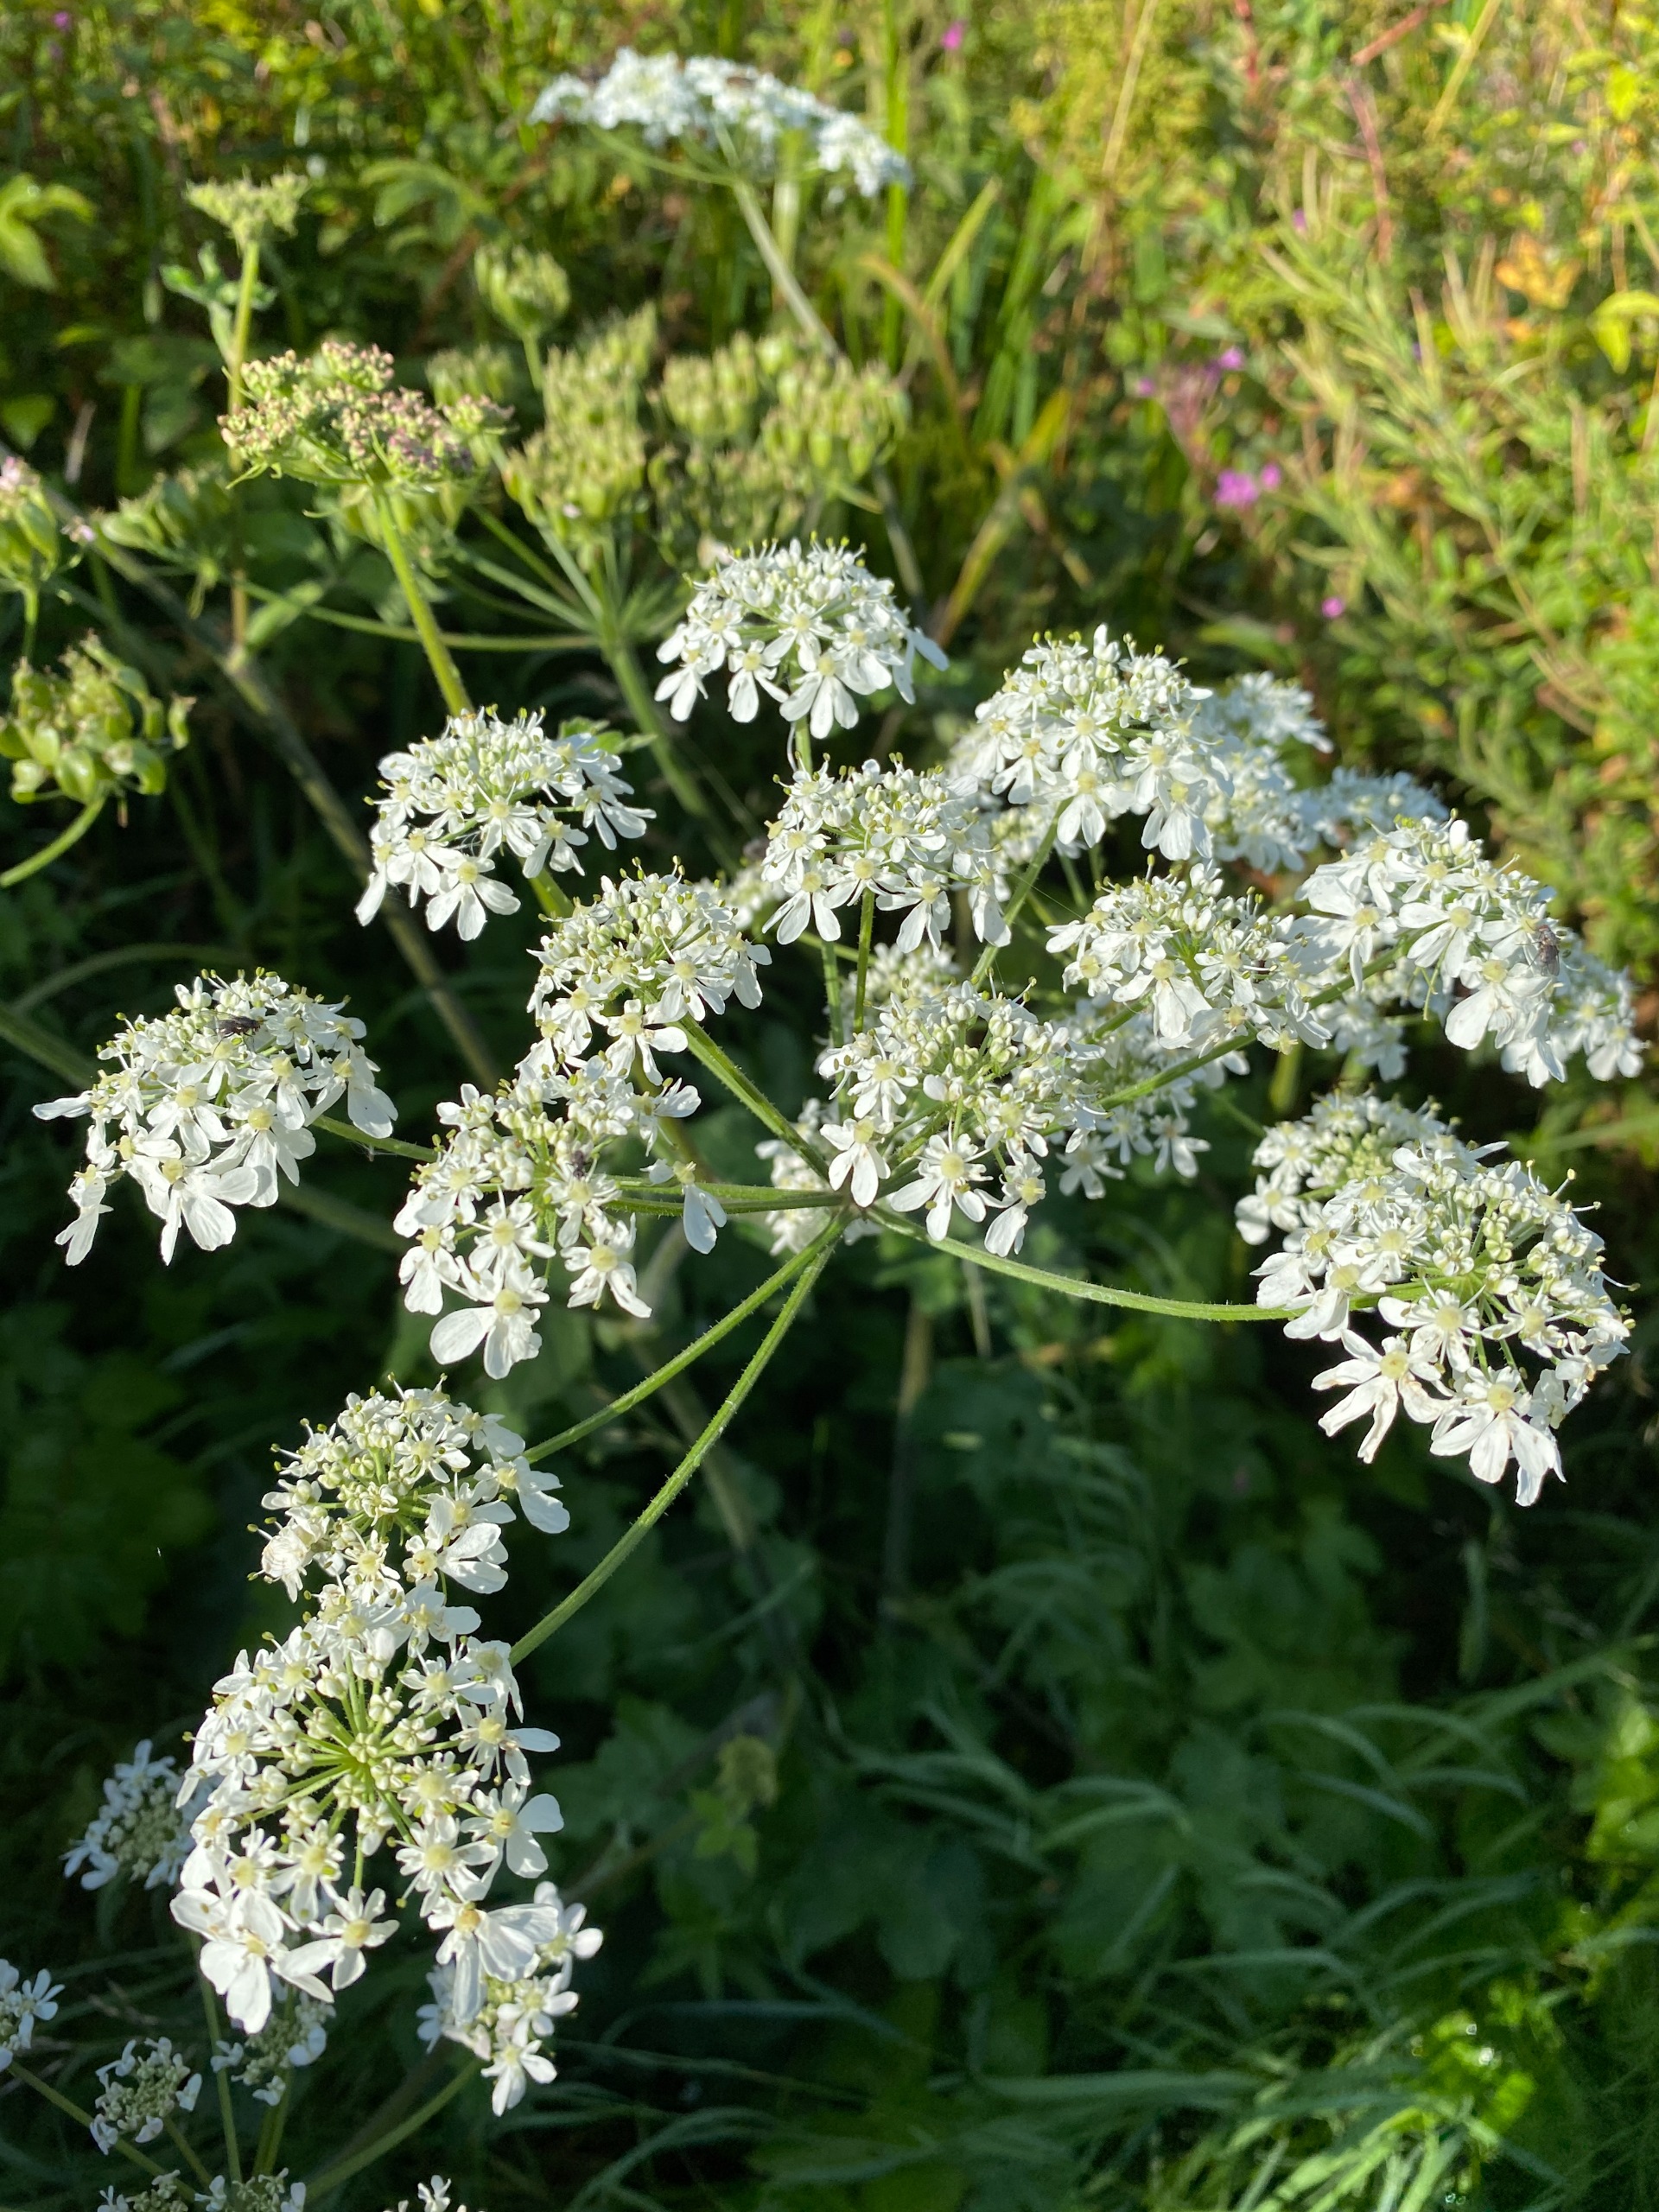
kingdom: Plantae
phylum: Tracheophyta
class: Magnoliopsida
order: Apiales
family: Apiaceae
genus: Heracleum
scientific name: Heracleum sphondylium
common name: Almindelig bjørneklo
